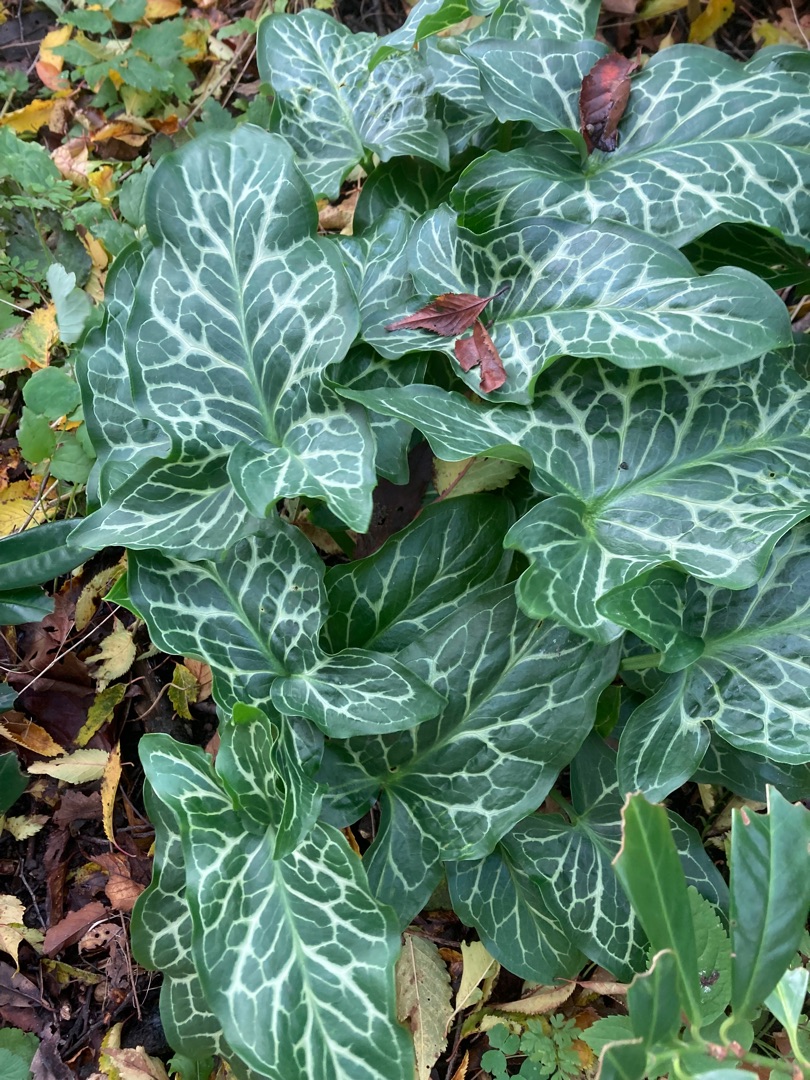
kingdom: Plantae
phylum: Tracheophyta
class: Liliopsida
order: Alismatales
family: Araceae
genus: Arum
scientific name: Arum italicum
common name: Italiensk arum
